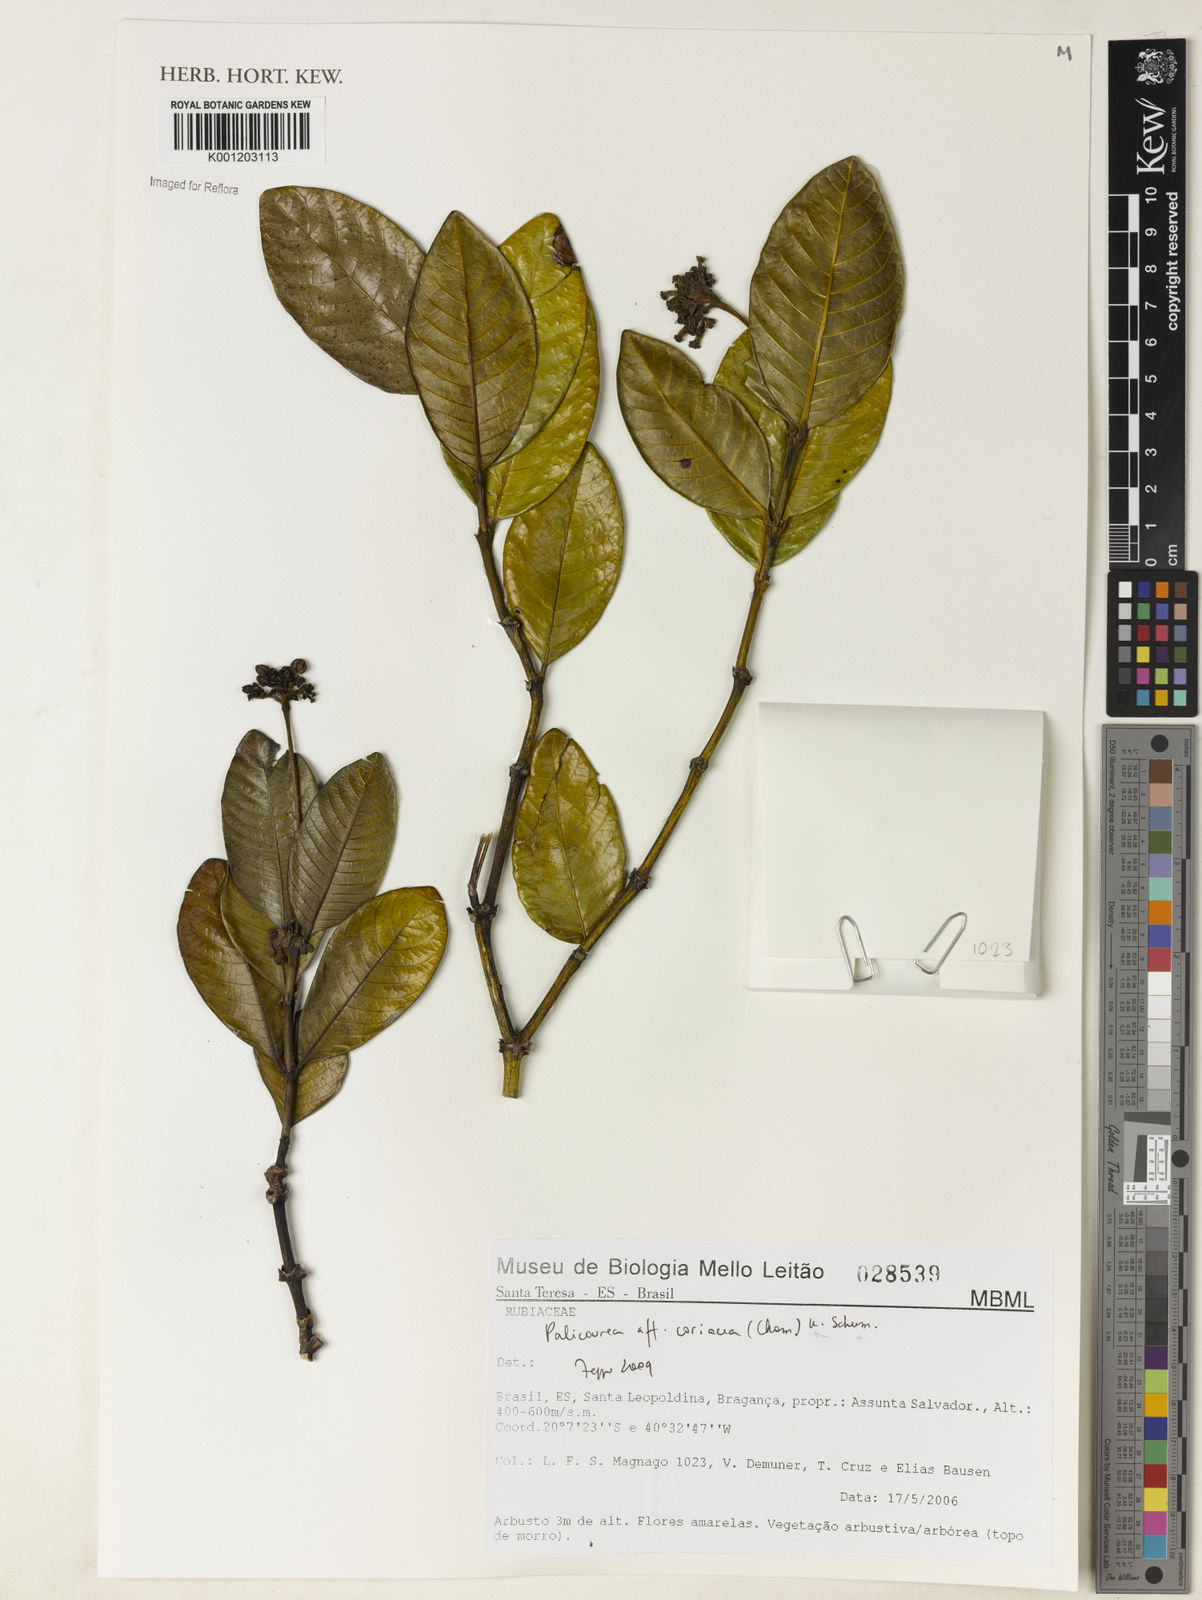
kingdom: Plantae
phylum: Tracheophyta
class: Magnoliopsida
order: Gentianales
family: Rubiaceae
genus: Palicourea
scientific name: Palicourea coriacea
